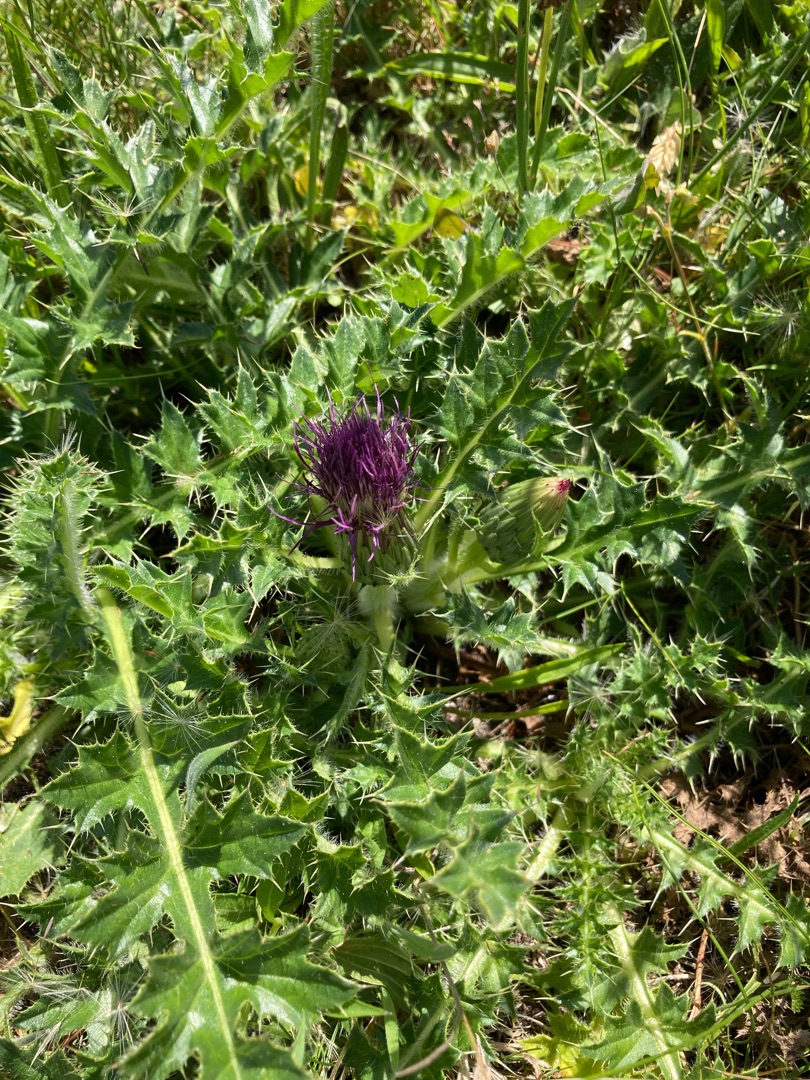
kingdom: Plantae
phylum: Tracheophyta
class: Magnoliopsida
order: Asterales
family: Asteraceae
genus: Cirsium
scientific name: Cirsium acaule
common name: Lav tidsel
